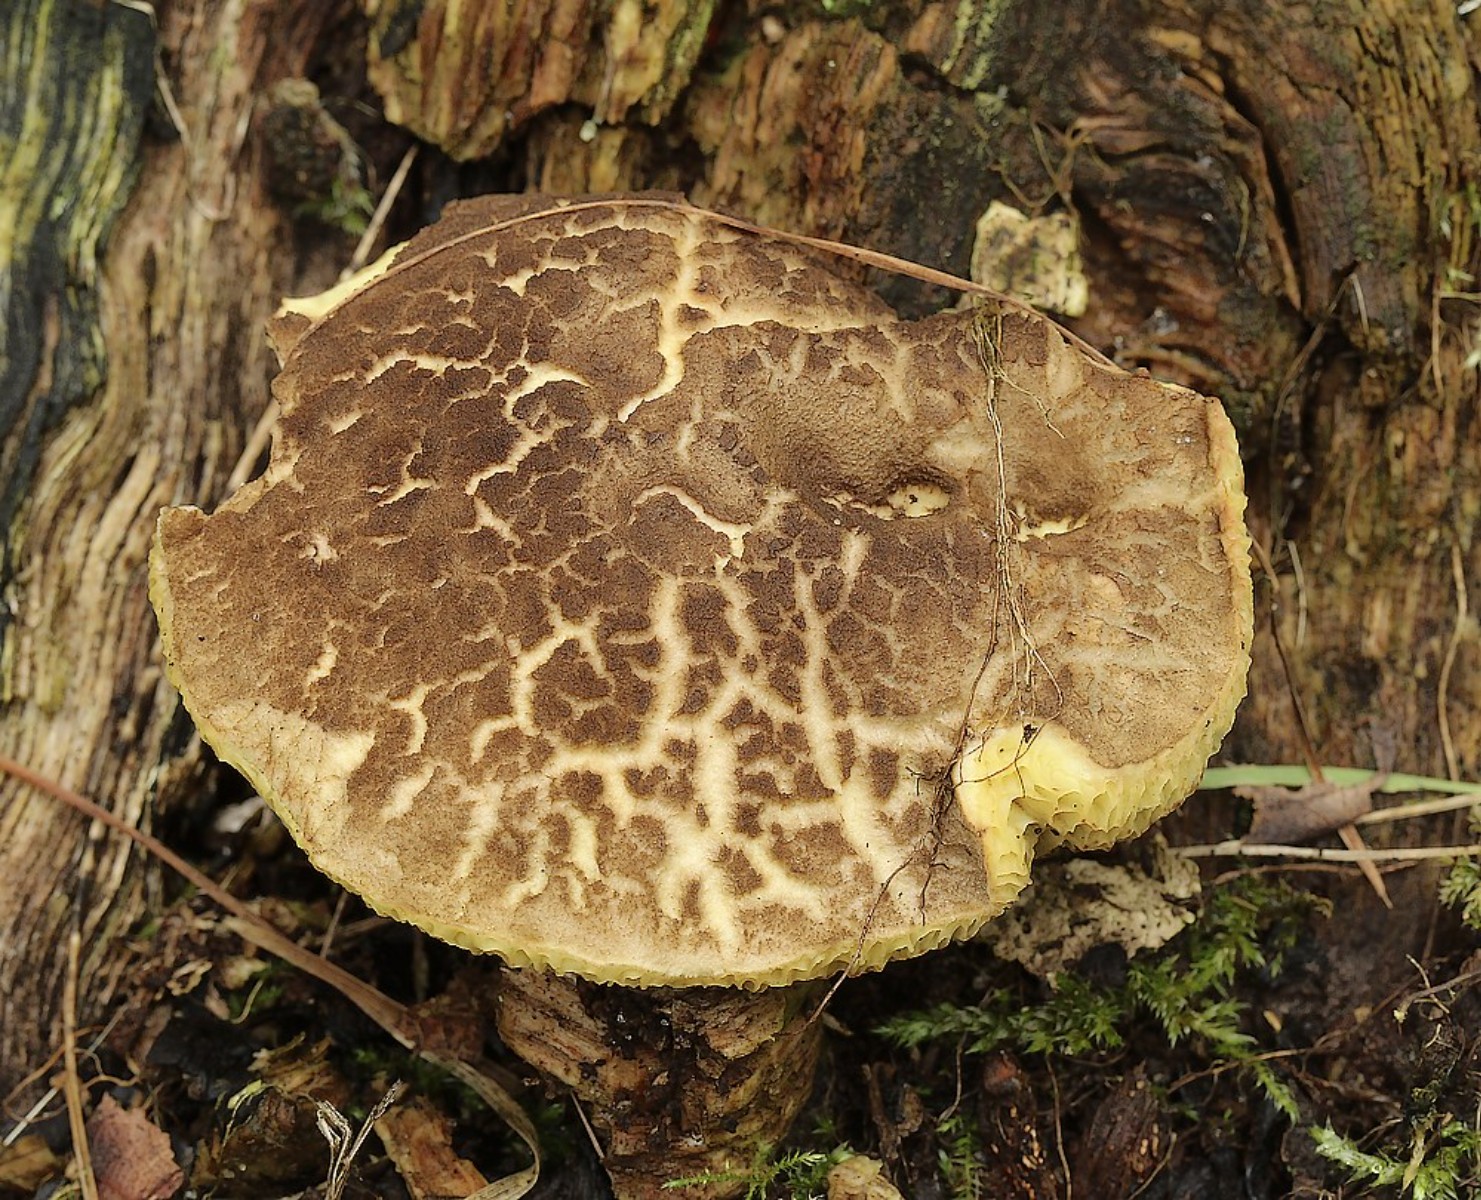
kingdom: Fungi
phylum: Basidiomycota
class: Agaricomycetes
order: Boletales
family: Boletaceae
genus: Xerocomellus
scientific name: Xerocomellus porosporus
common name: hvidsprukken rørhat
